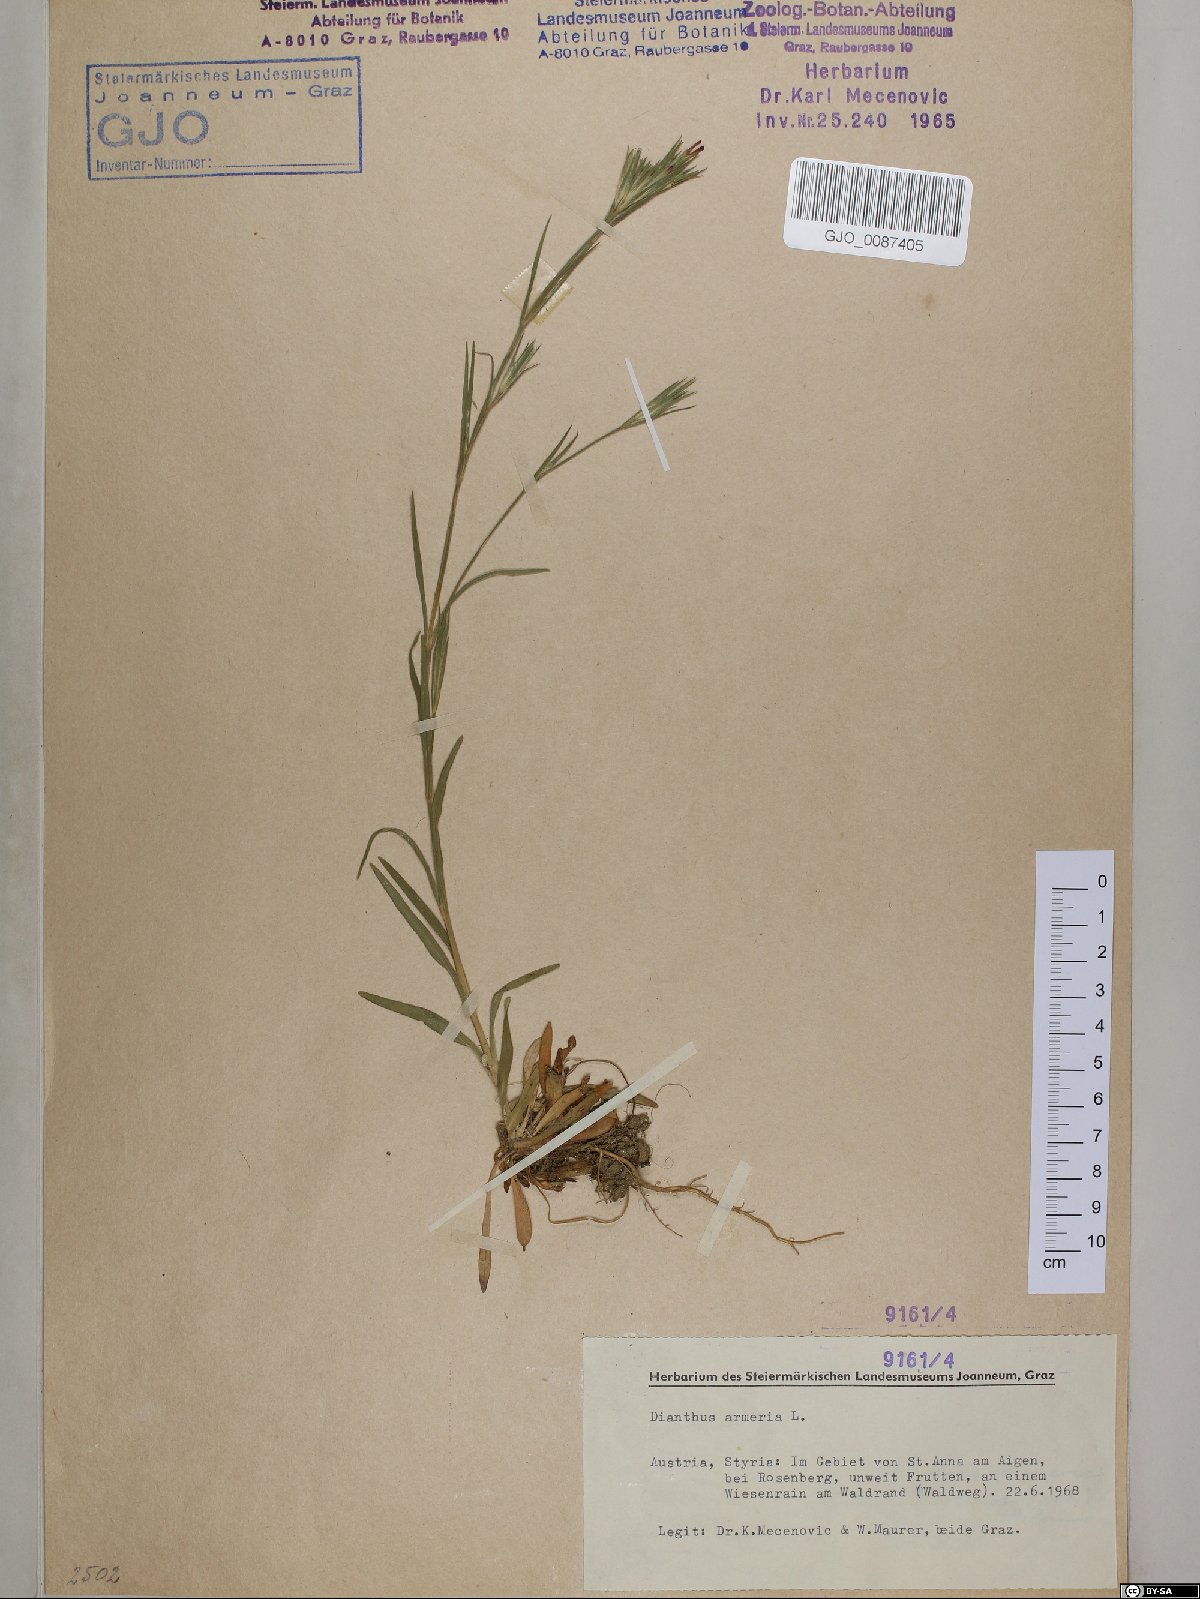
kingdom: Plantae
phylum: Tracheophyta
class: Magnoliopsida
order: Caryophyllales
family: Caryophyllaceae
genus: Dianthus
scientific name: Dianthus armeria
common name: Deptford pink
